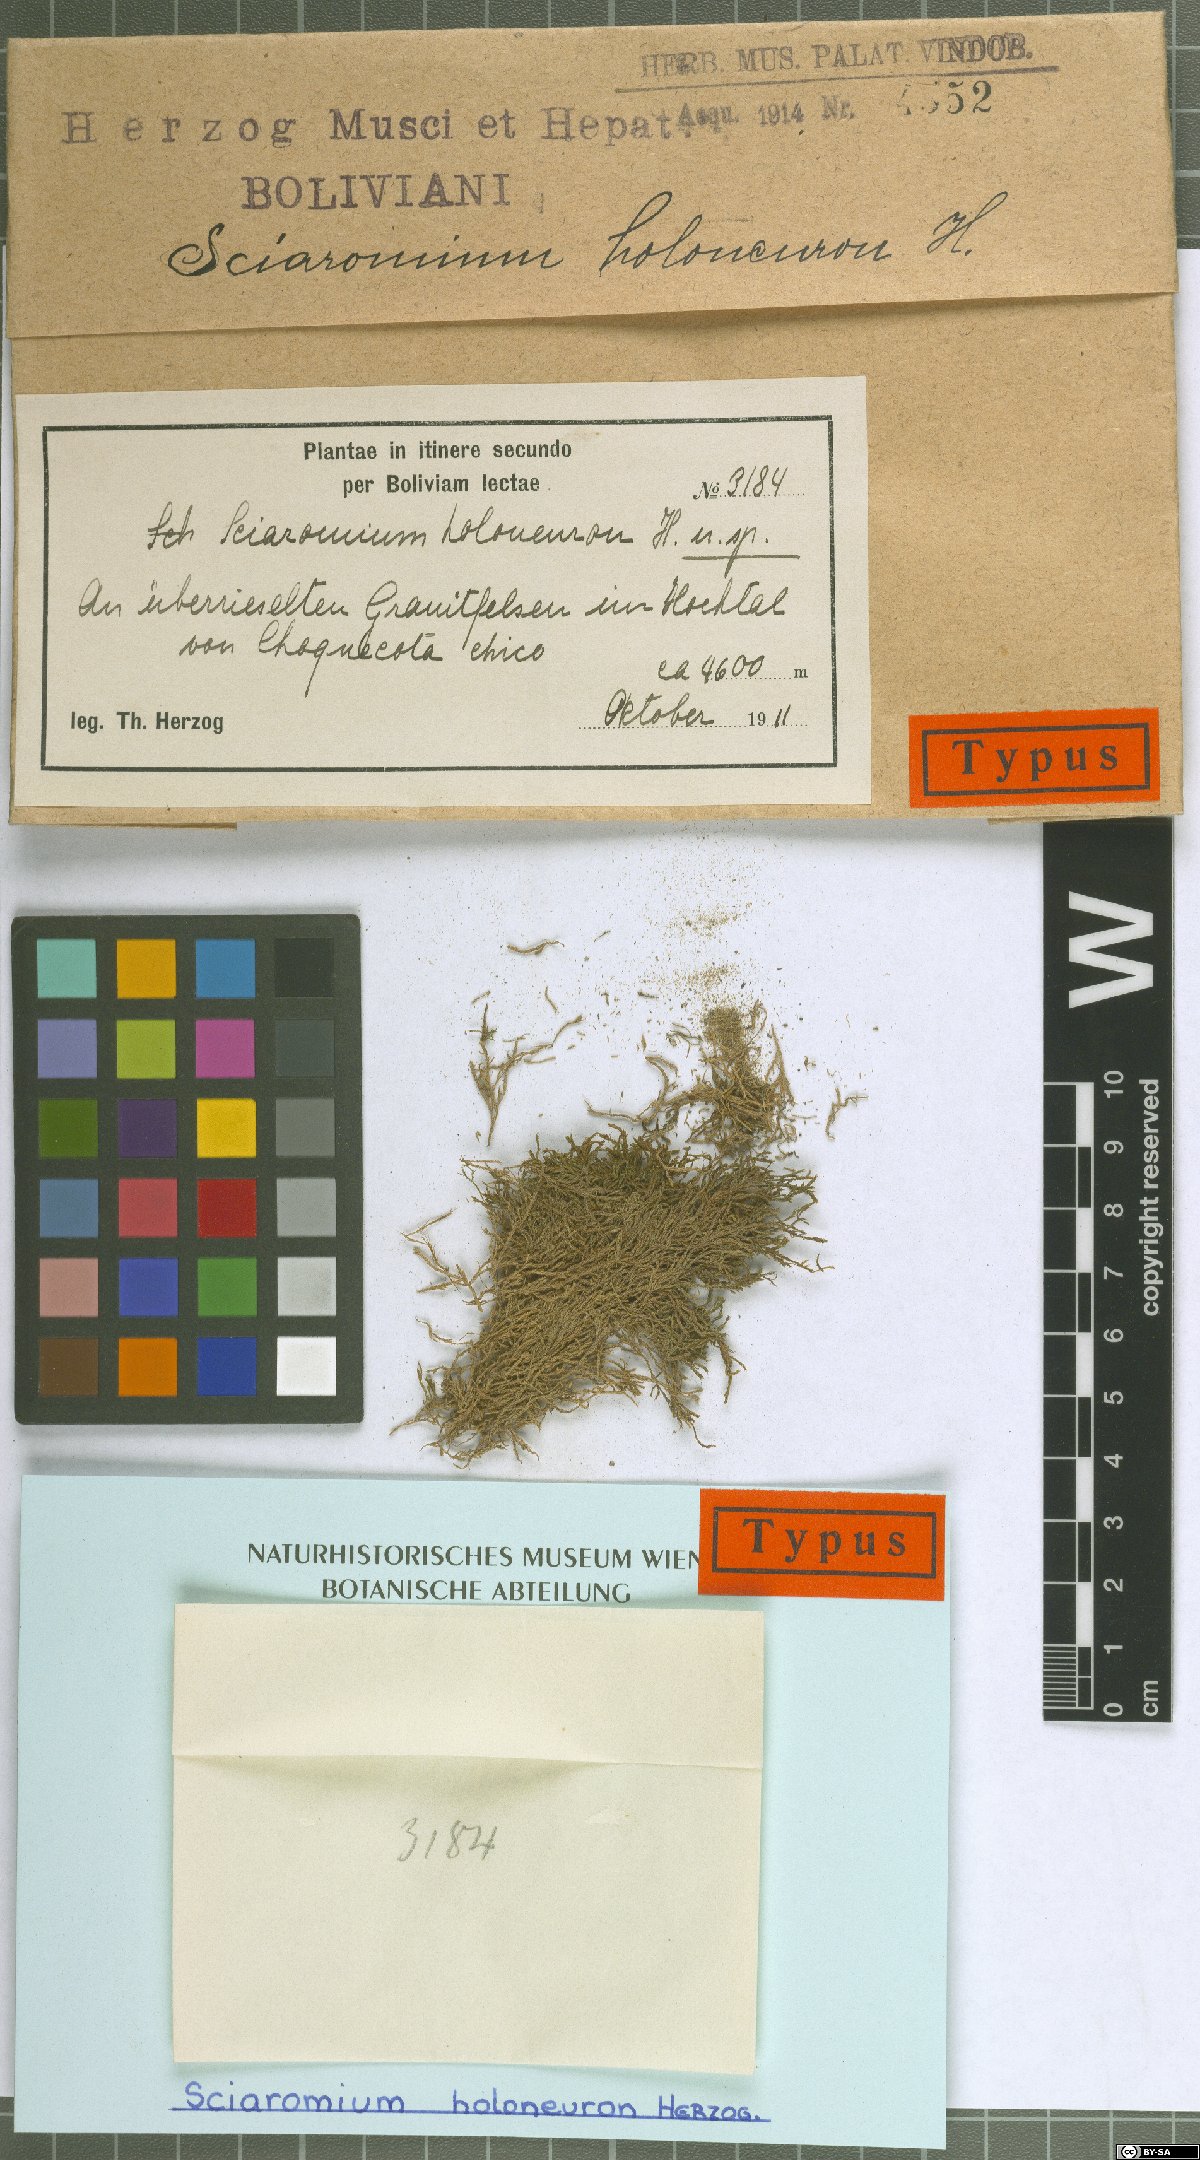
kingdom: Plantae
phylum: Bryophyta
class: Bryopsida
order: Hypnales
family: Amblystegiaceae
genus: Koponenia
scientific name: Koponenia holoneuron
